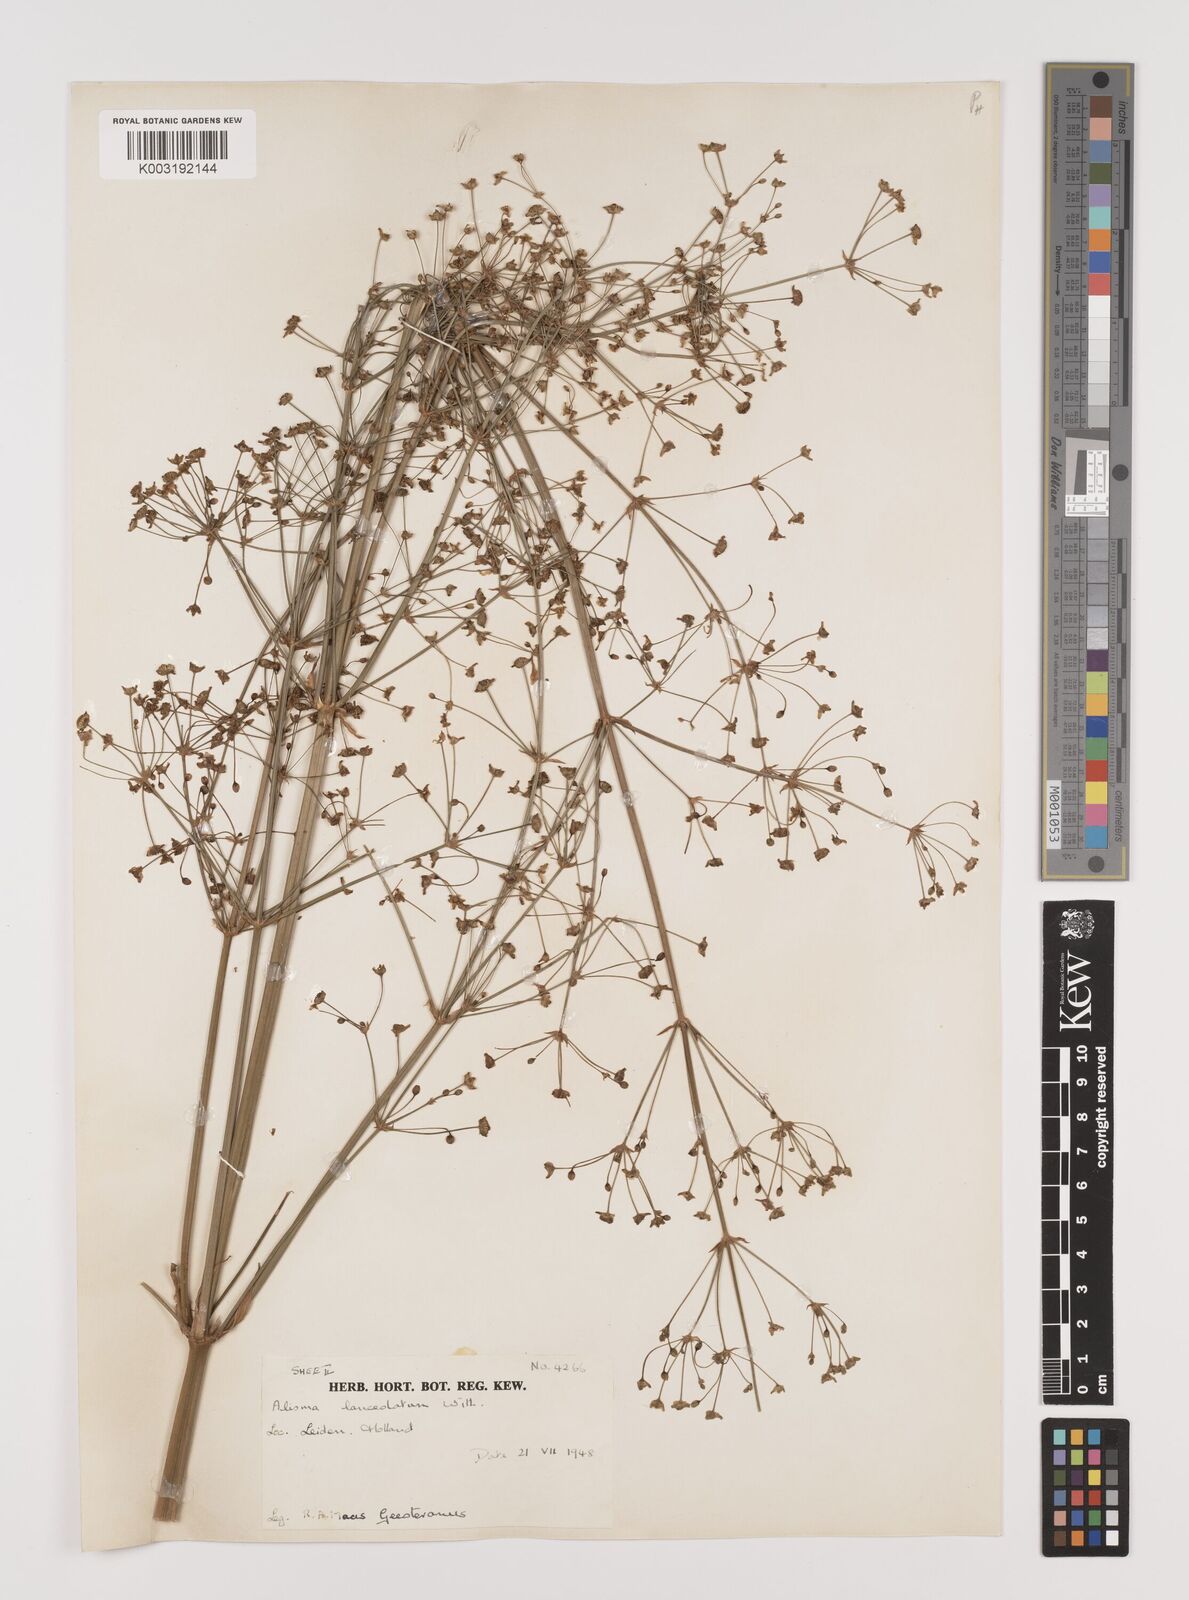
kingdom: Plantae
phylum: Tracheophyta
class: Liliopsida
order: Alismatales
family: Alismataceae
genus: Alisma
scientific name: Alisma plantago-aquatica
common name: Water-plantain
